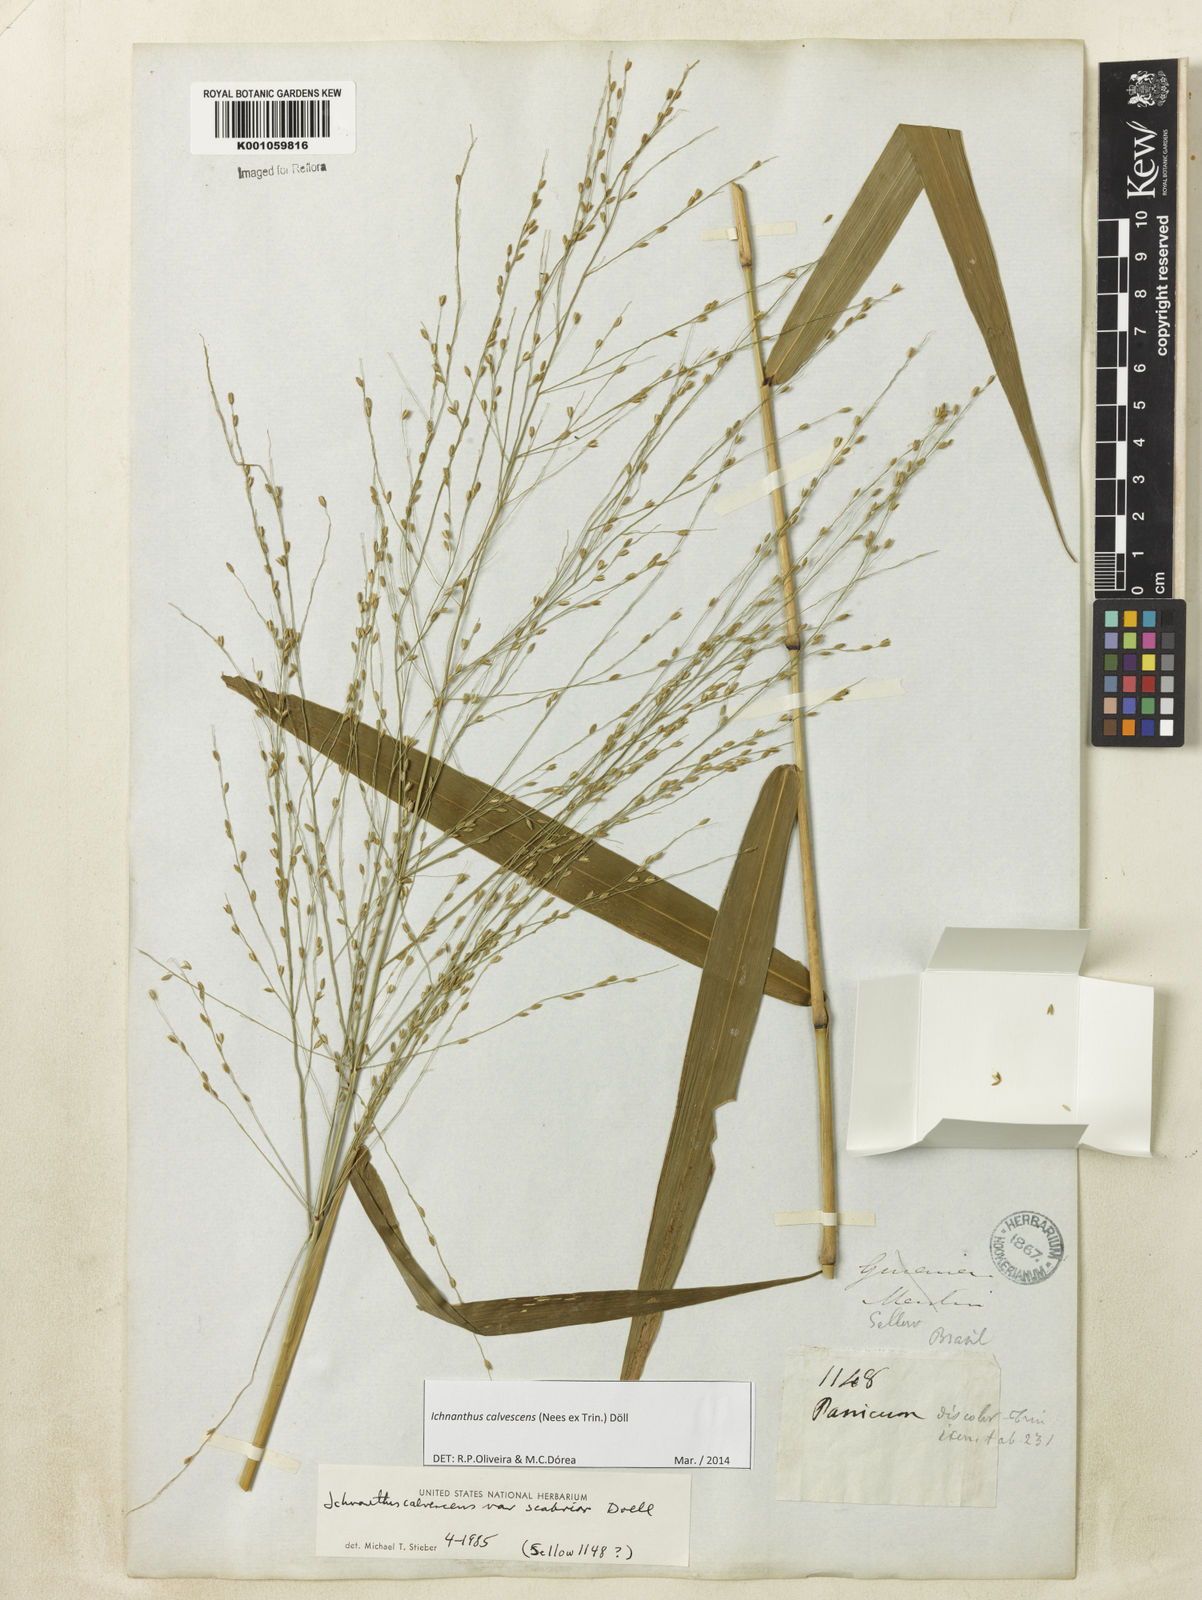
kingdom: Plantae
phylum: Tracheophyta
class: Liliopsida
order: Poales
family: Poaceae
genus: Ichnanthus
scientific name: Ichnanthus
